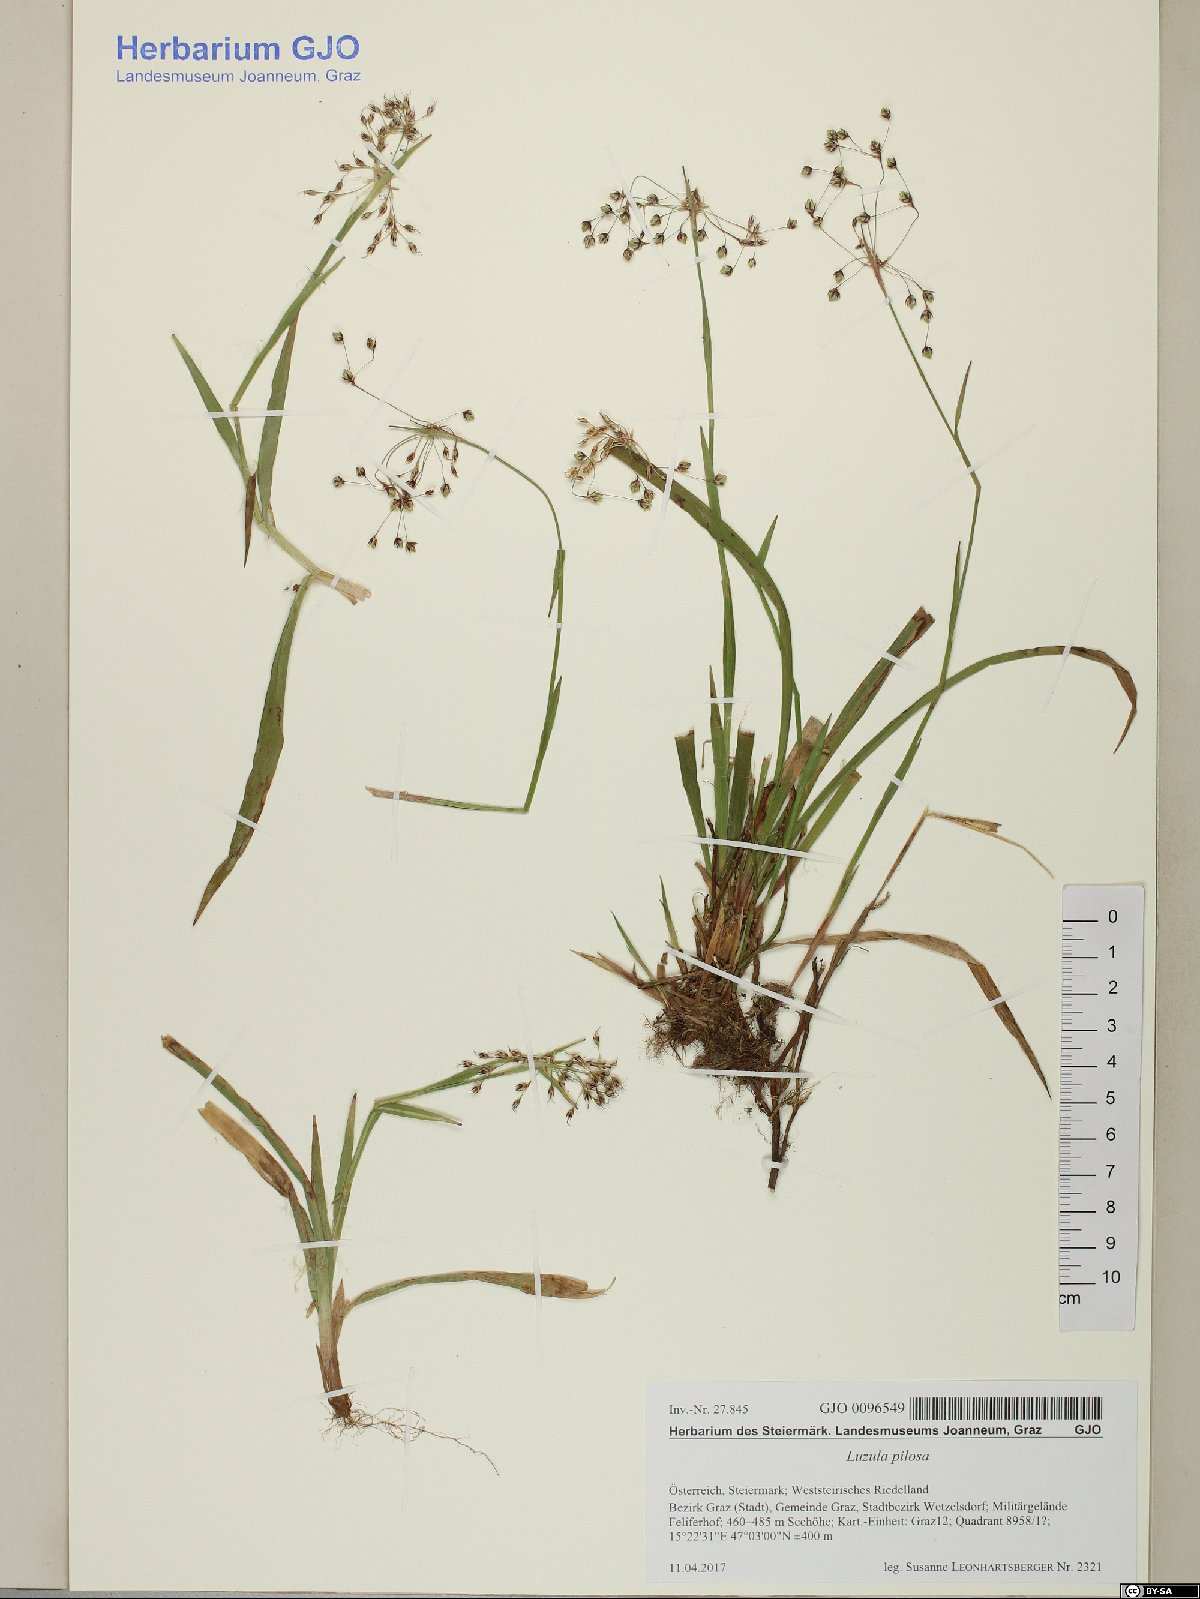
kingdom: Plantae
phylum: Tracheophyta
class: Liliopsida
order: Poales
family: Juncaceae
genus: Luzula
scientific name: Luzula pilosa
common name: Hairy wood-rush
